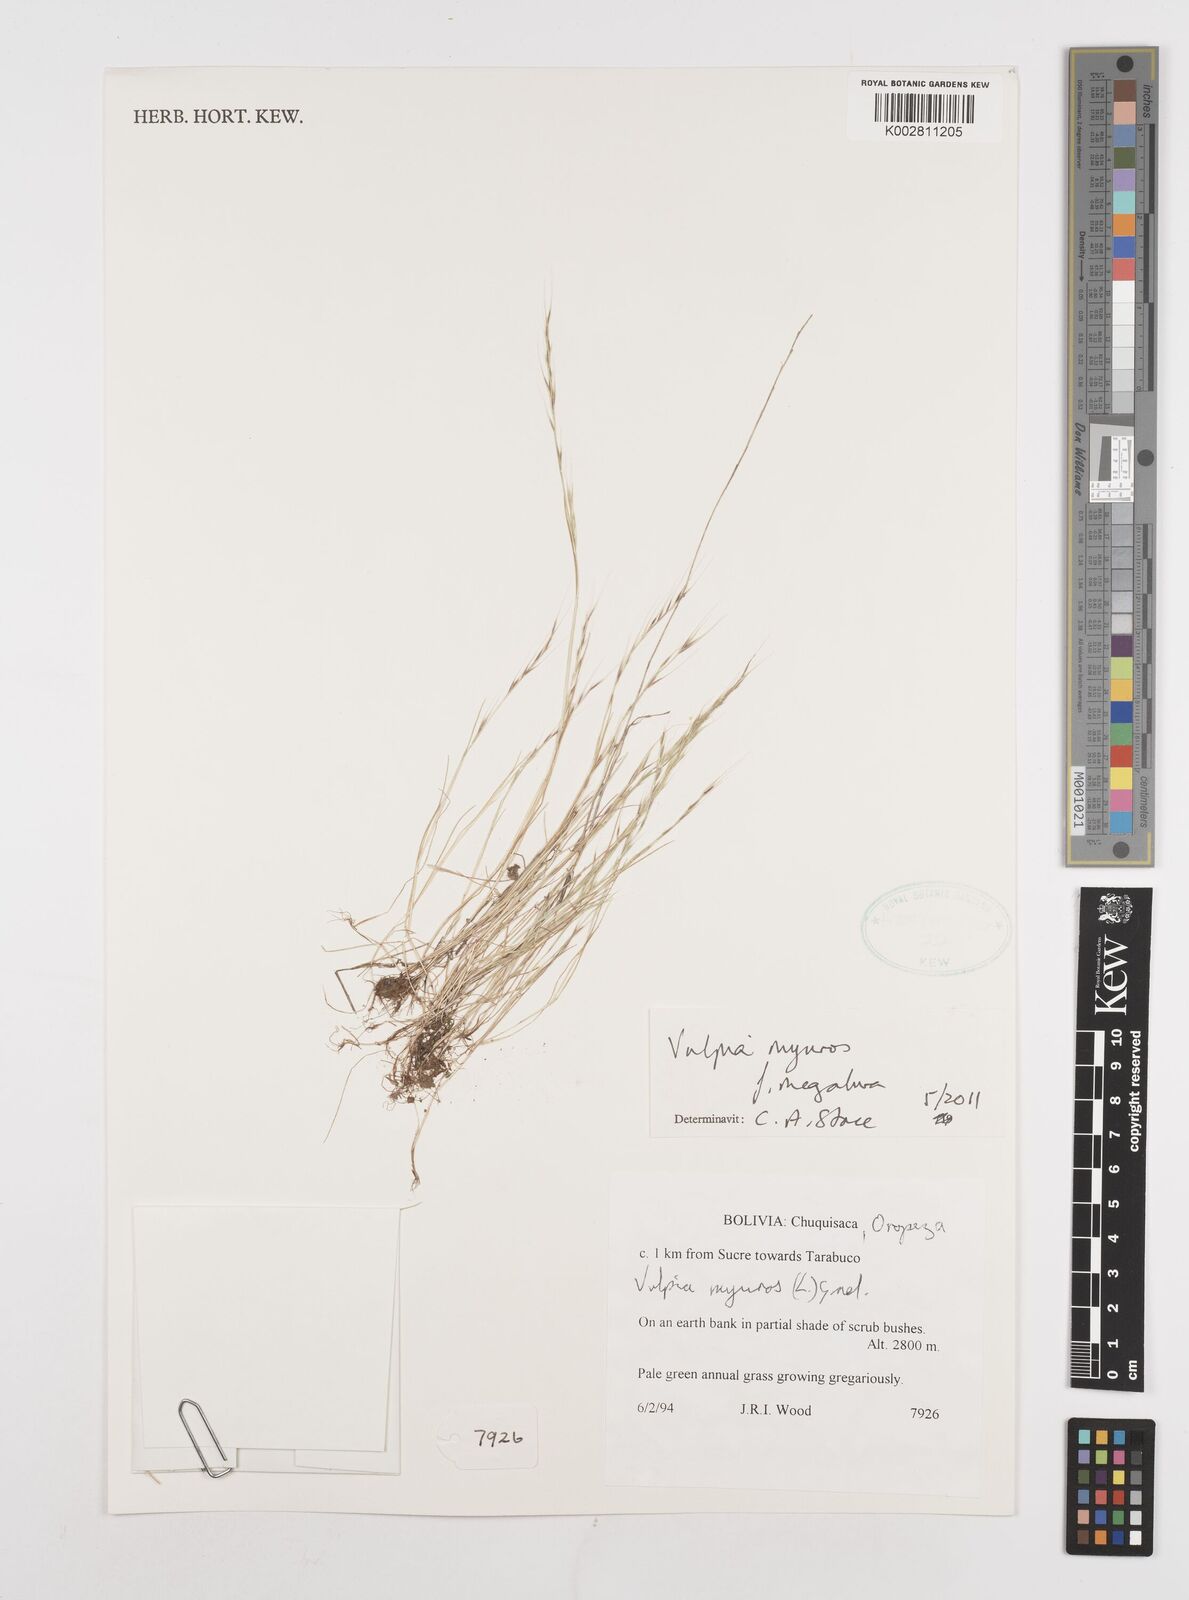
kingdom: Plantae
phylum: Tracheophyta
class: Liliopsida
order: Poales
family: Poaceae
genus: Festuca
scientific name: Festuca myuros
